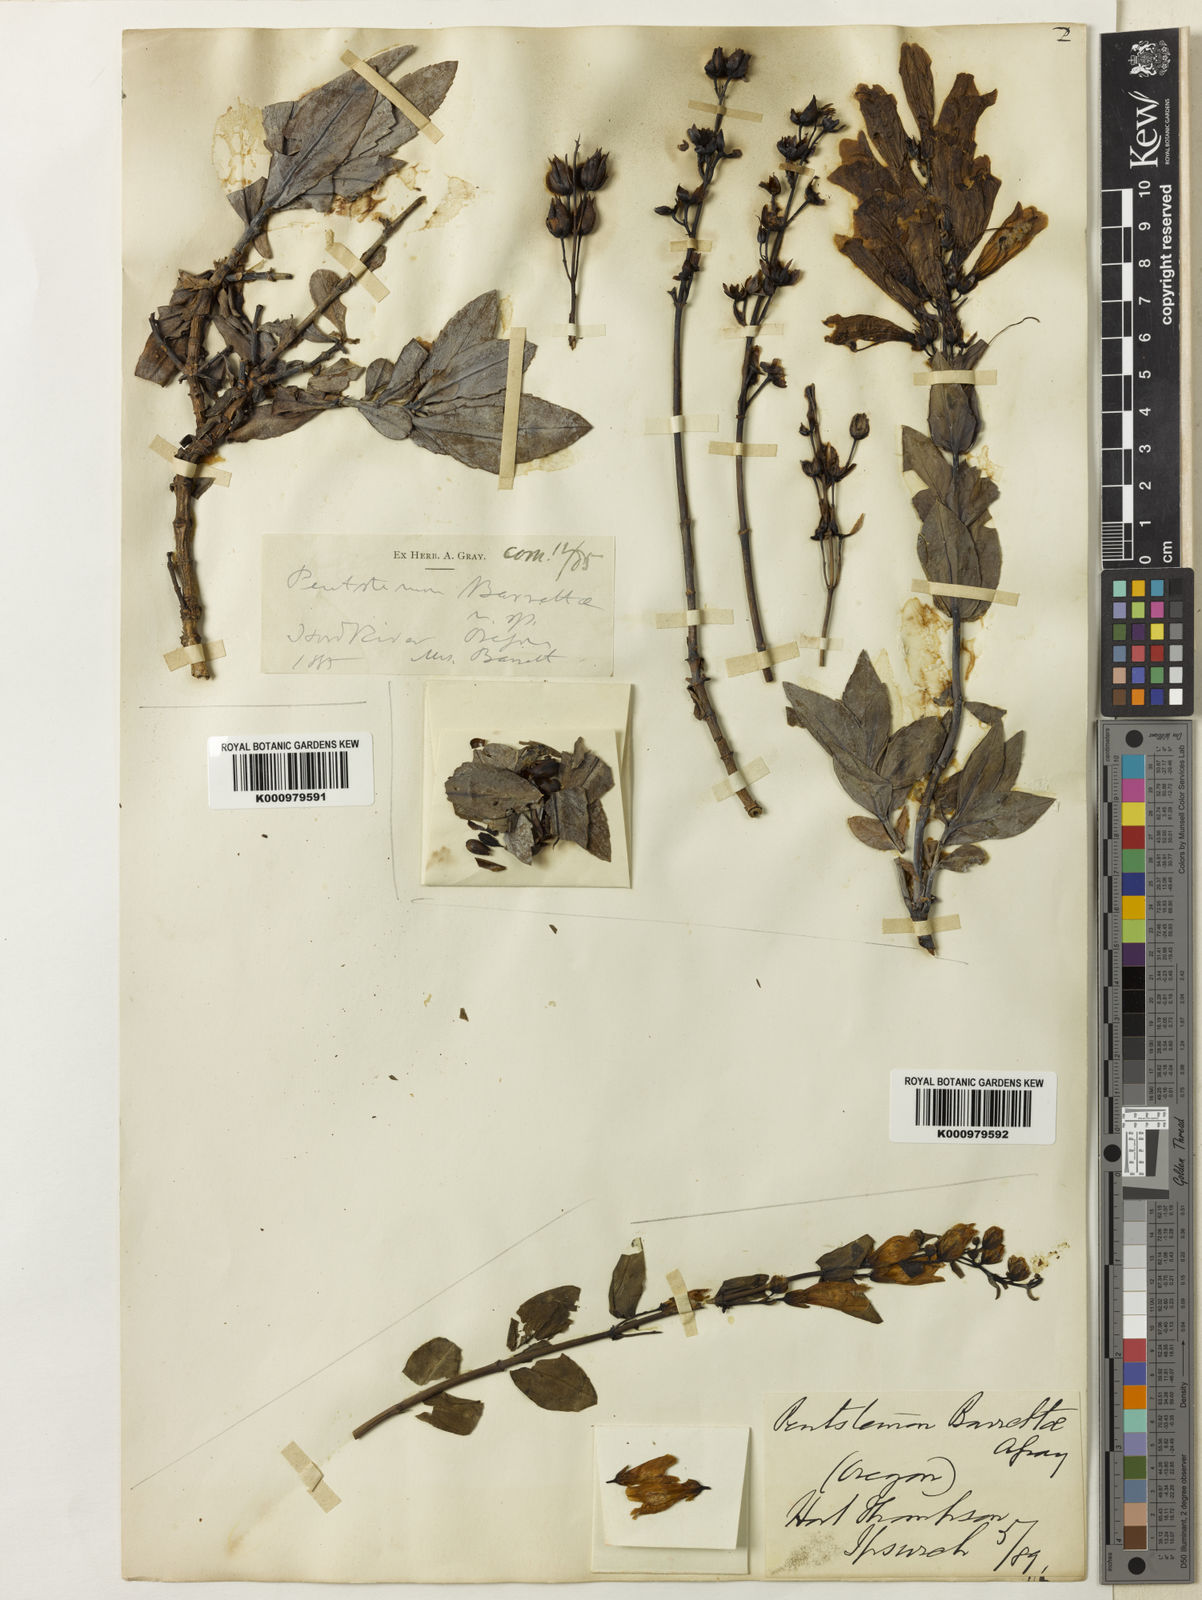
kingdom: Plantae
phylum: Tracheophyta
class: Magnoliopsida
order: Lamiales
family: Plantaginaceae
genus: Penstemon
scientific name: Penstemon
